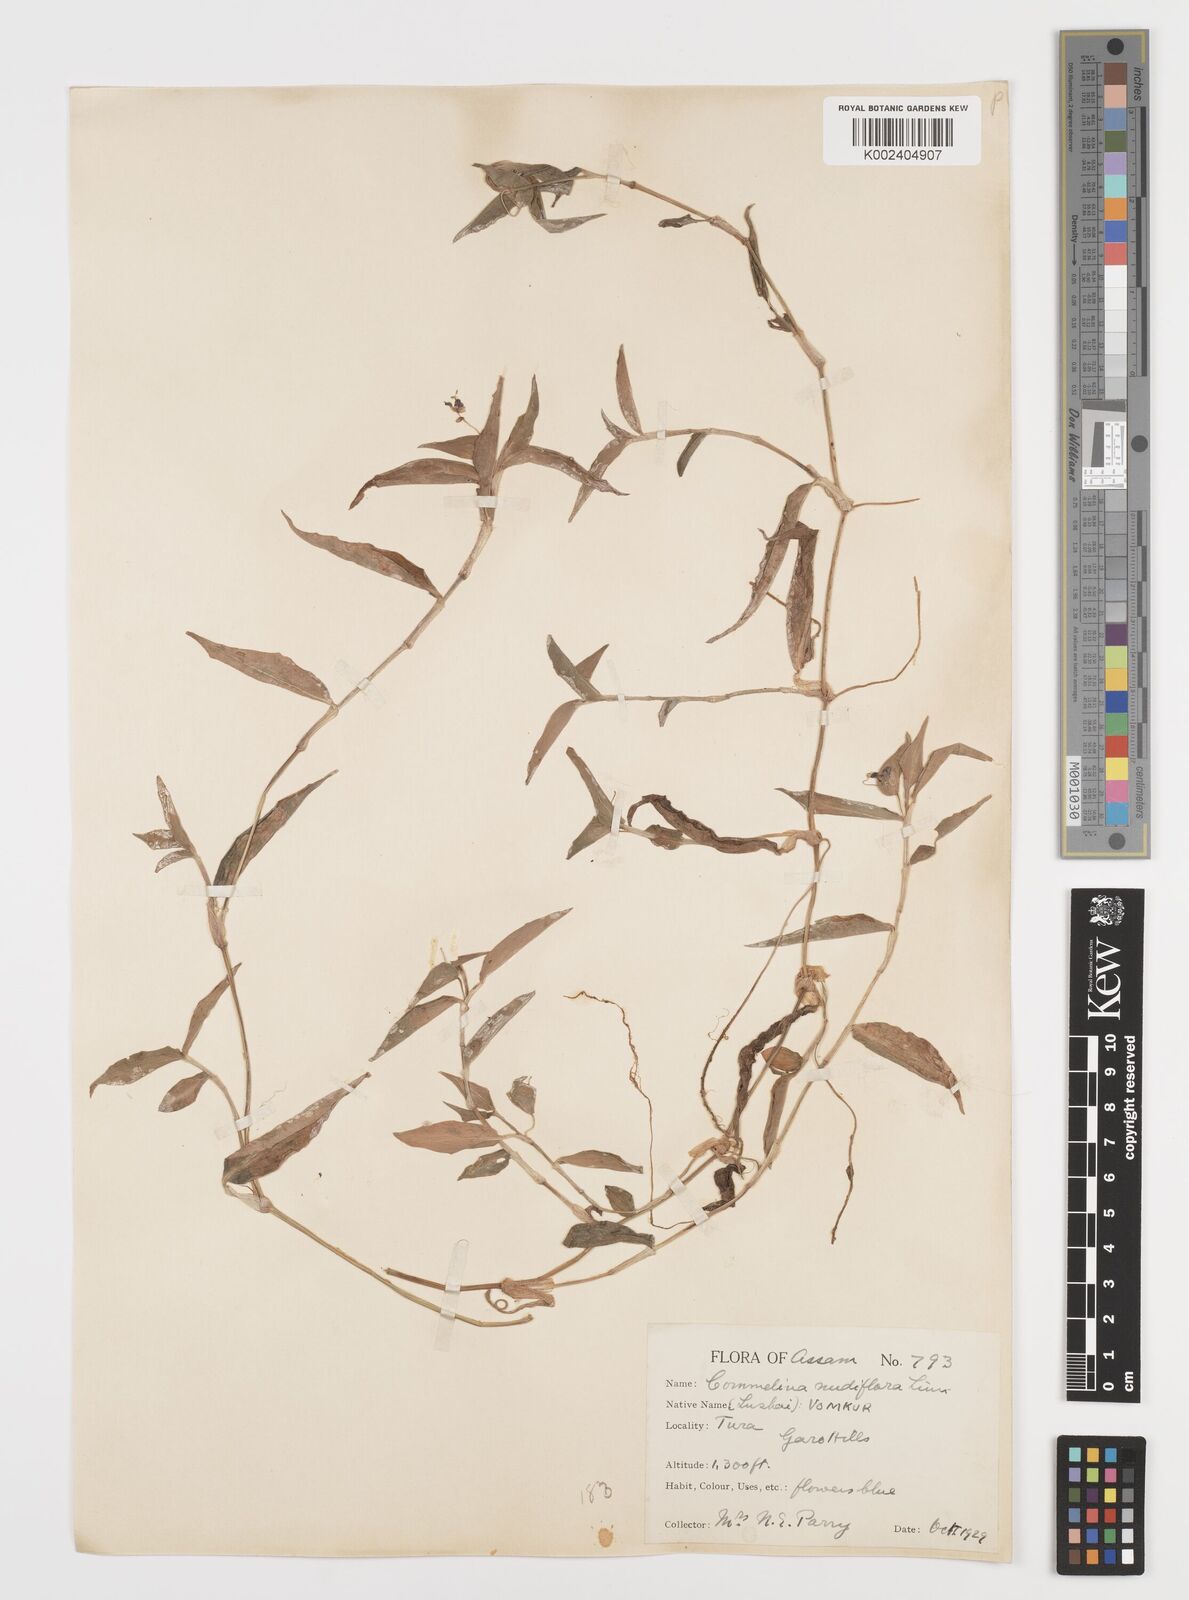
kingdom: Plantae
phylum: Tracheophyta
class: Liliopsida
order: Commelinales
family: Commelinaceae
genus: Commelina
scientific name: Commelina diffusa
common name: Climbing dayflower
